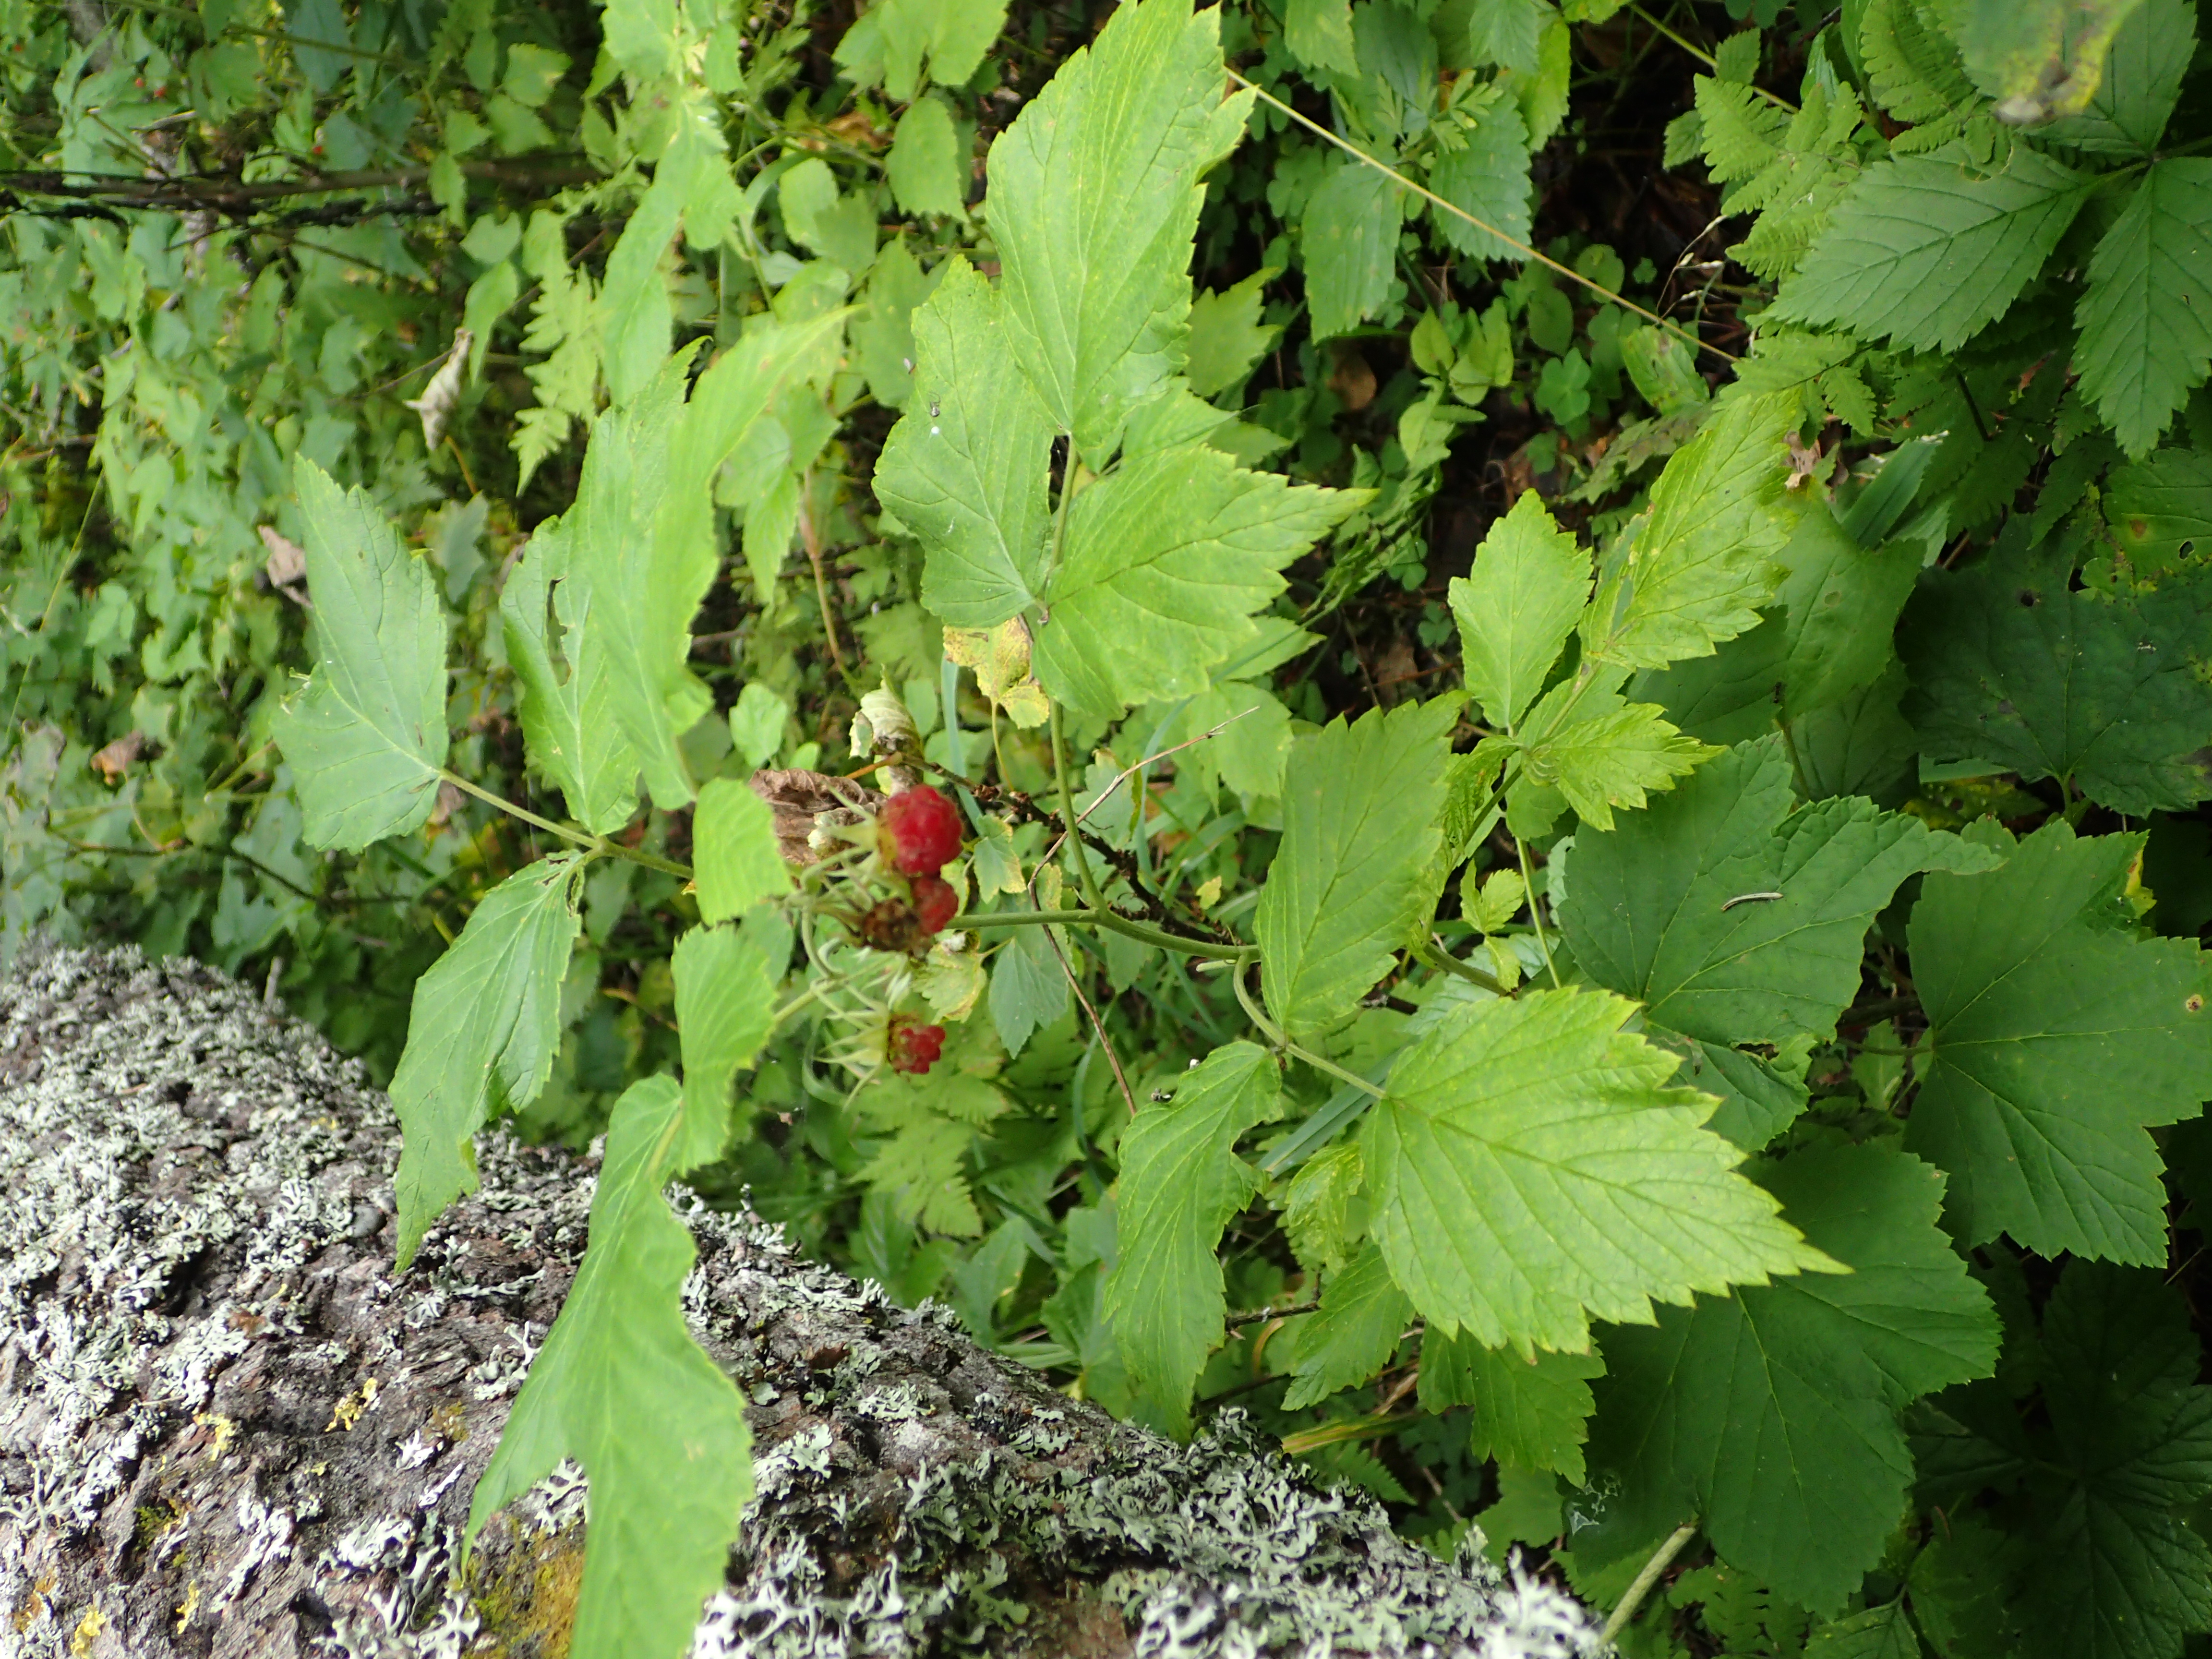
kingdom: Plantae
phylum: Tracheophyta
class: Magnoliopsida
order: Rosales
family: Rosaceae
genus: Rubus
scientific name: Rubus idaeus
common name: Raspberry
